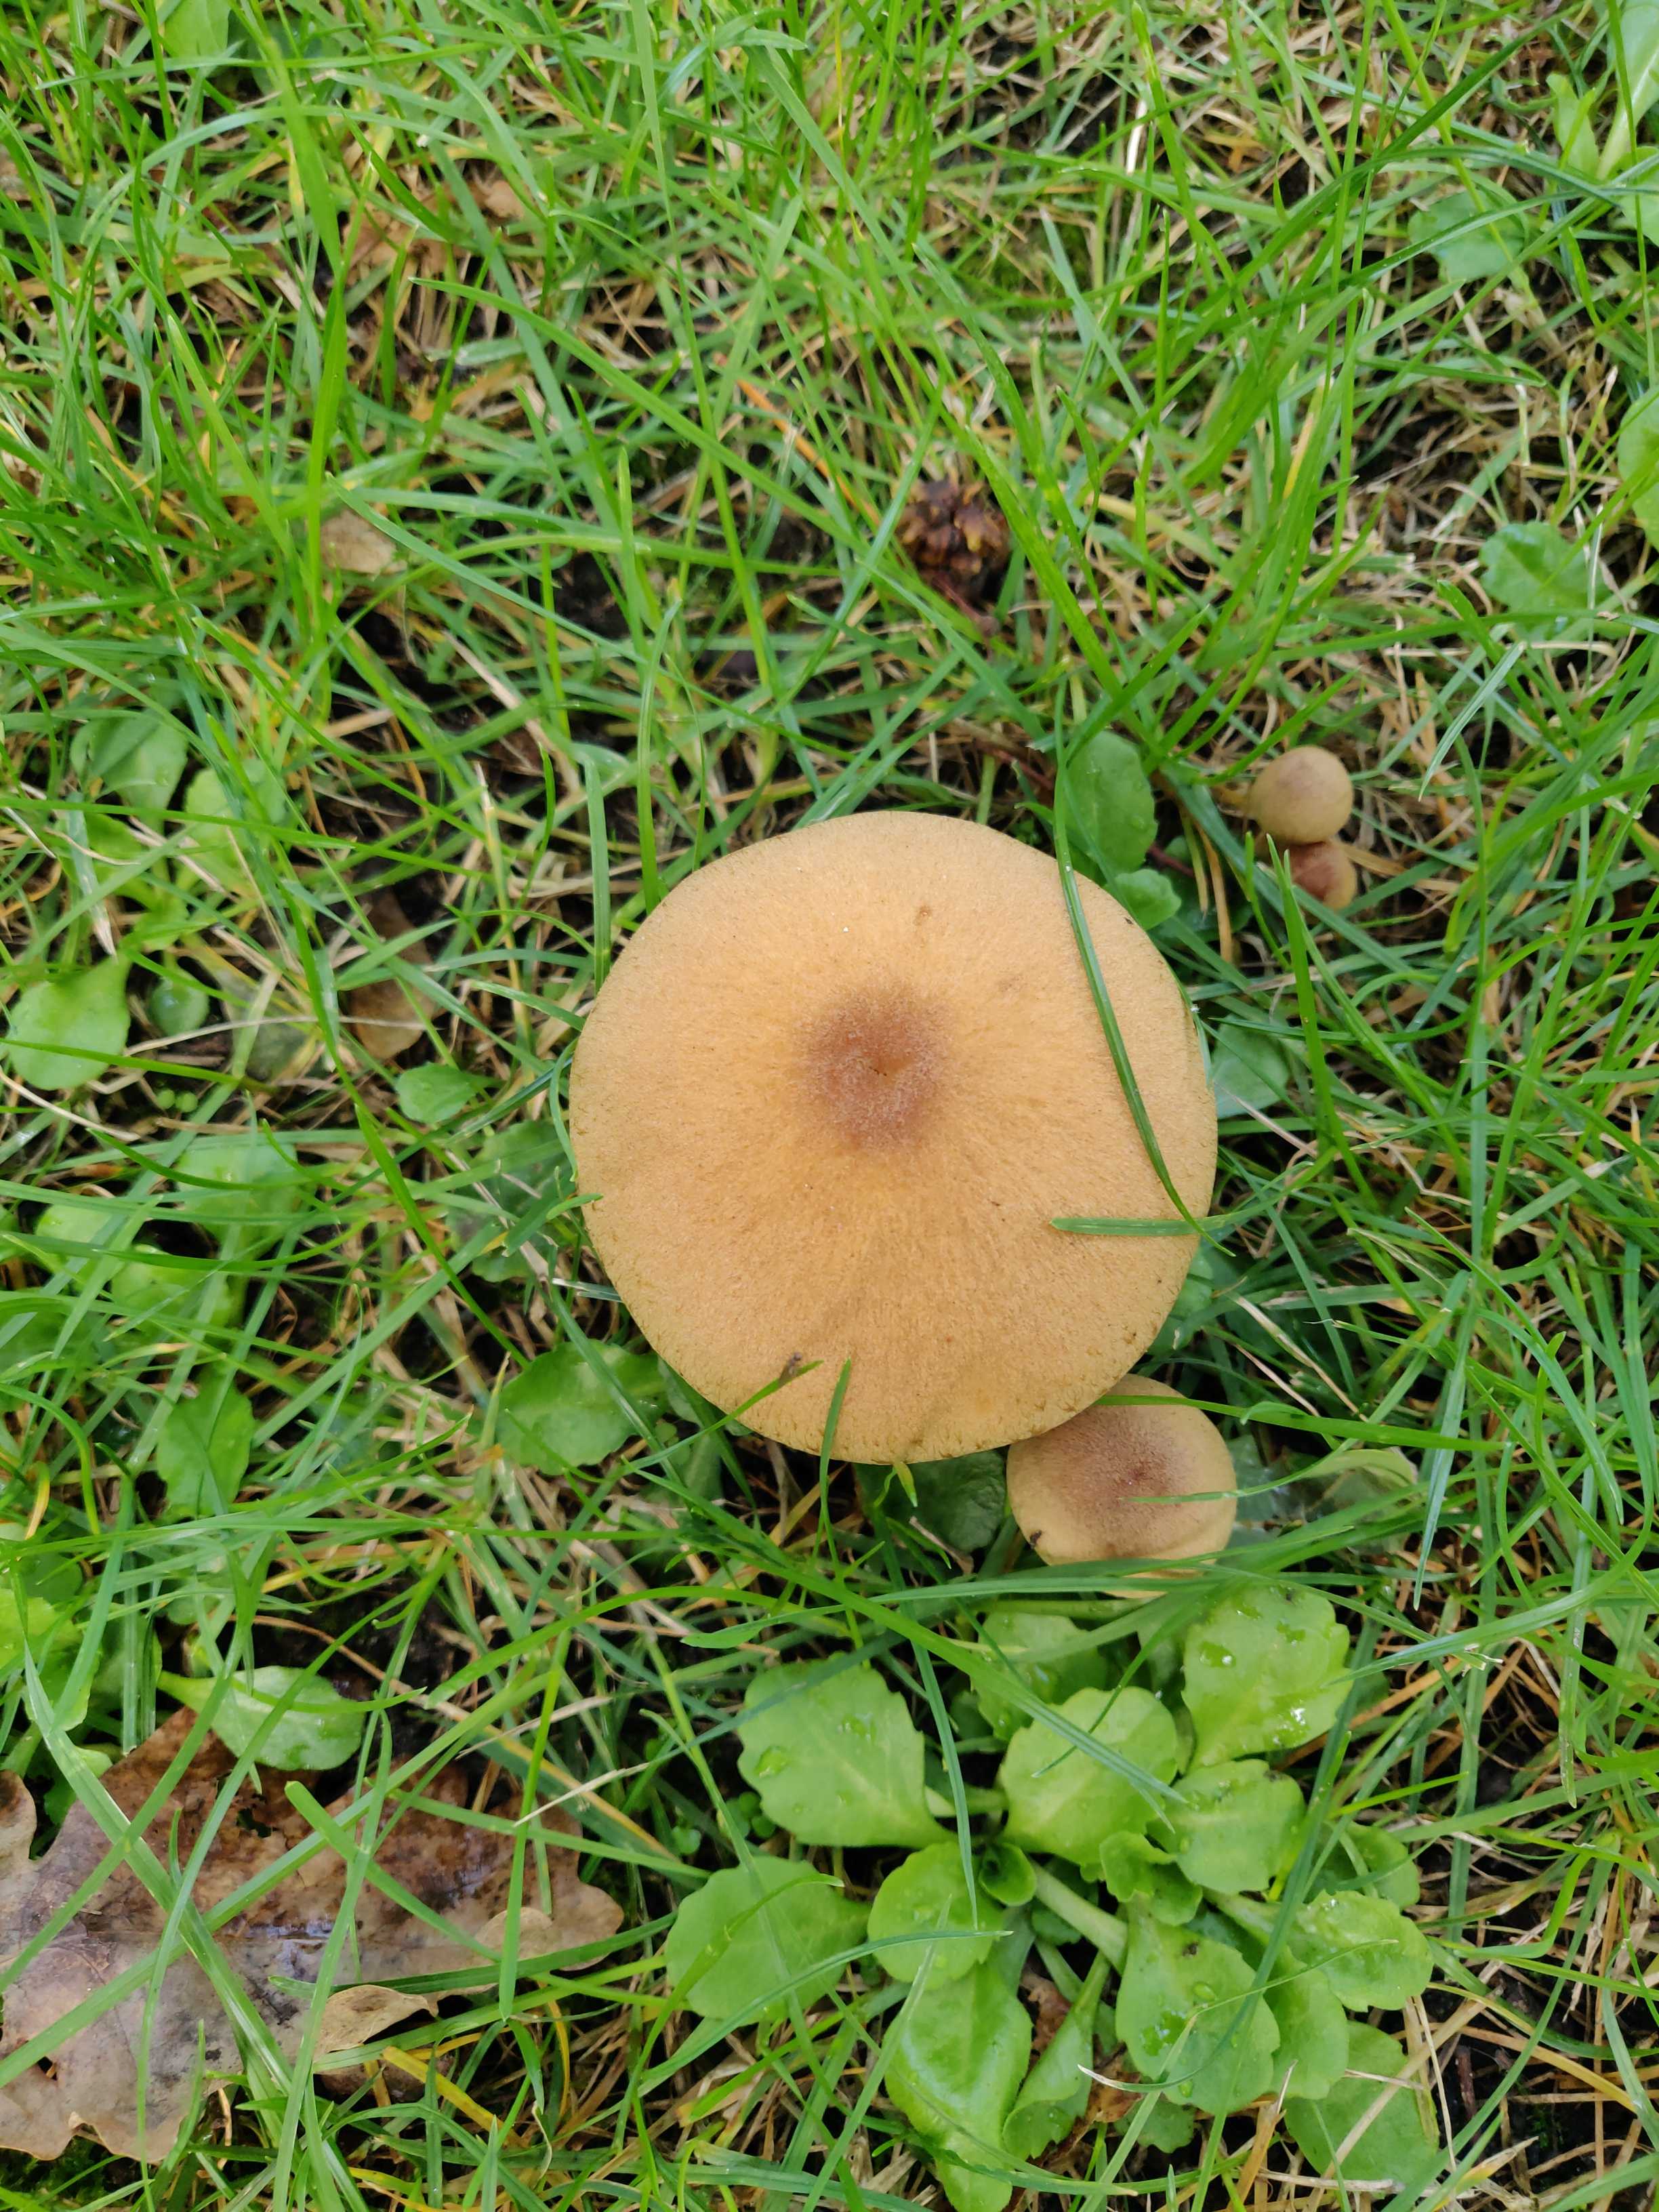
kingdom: Fungi
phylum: Basidiomycota
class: Agaricomycetes
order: Agaricales
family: Psathyrellaceae
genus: Lacrymaria
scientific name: Lacrymaria lacrymabunda
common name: grædende mørkhat
